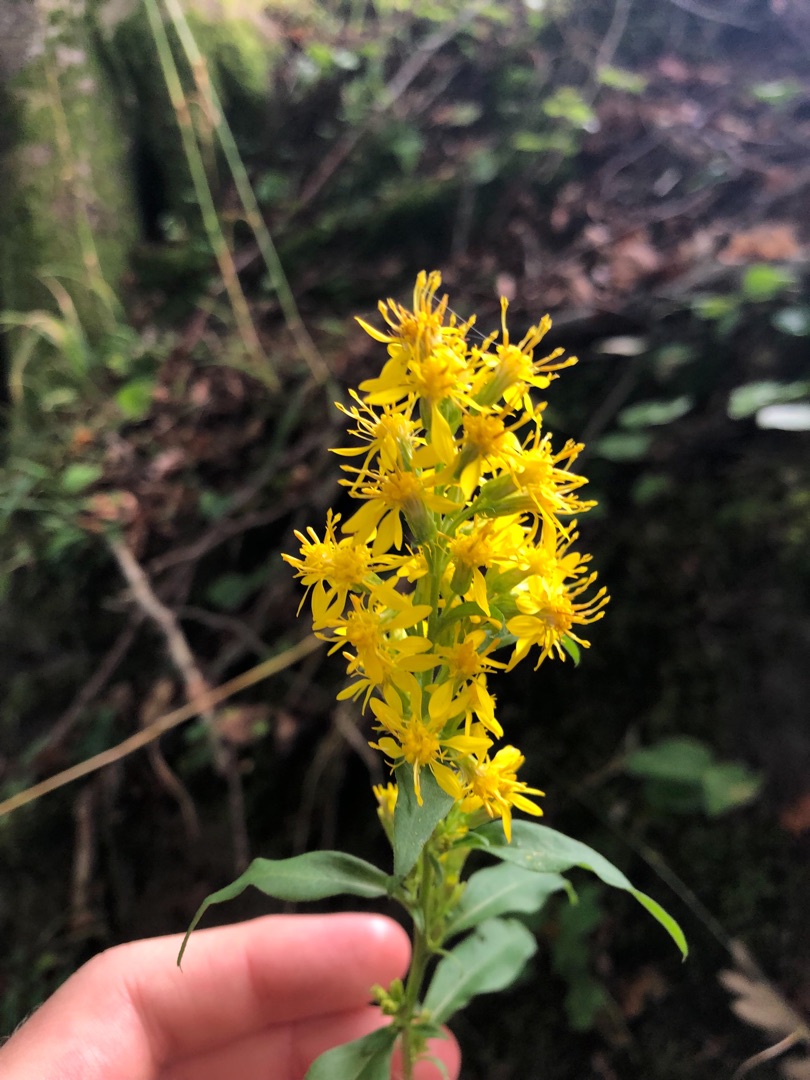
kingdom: Plantae
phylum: Tracheophyta
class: Magnoliopsida
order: Asterales
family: Asteraceae
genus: Solidago
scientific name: Solidago virgaurea
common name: Almindelig gyldenris
